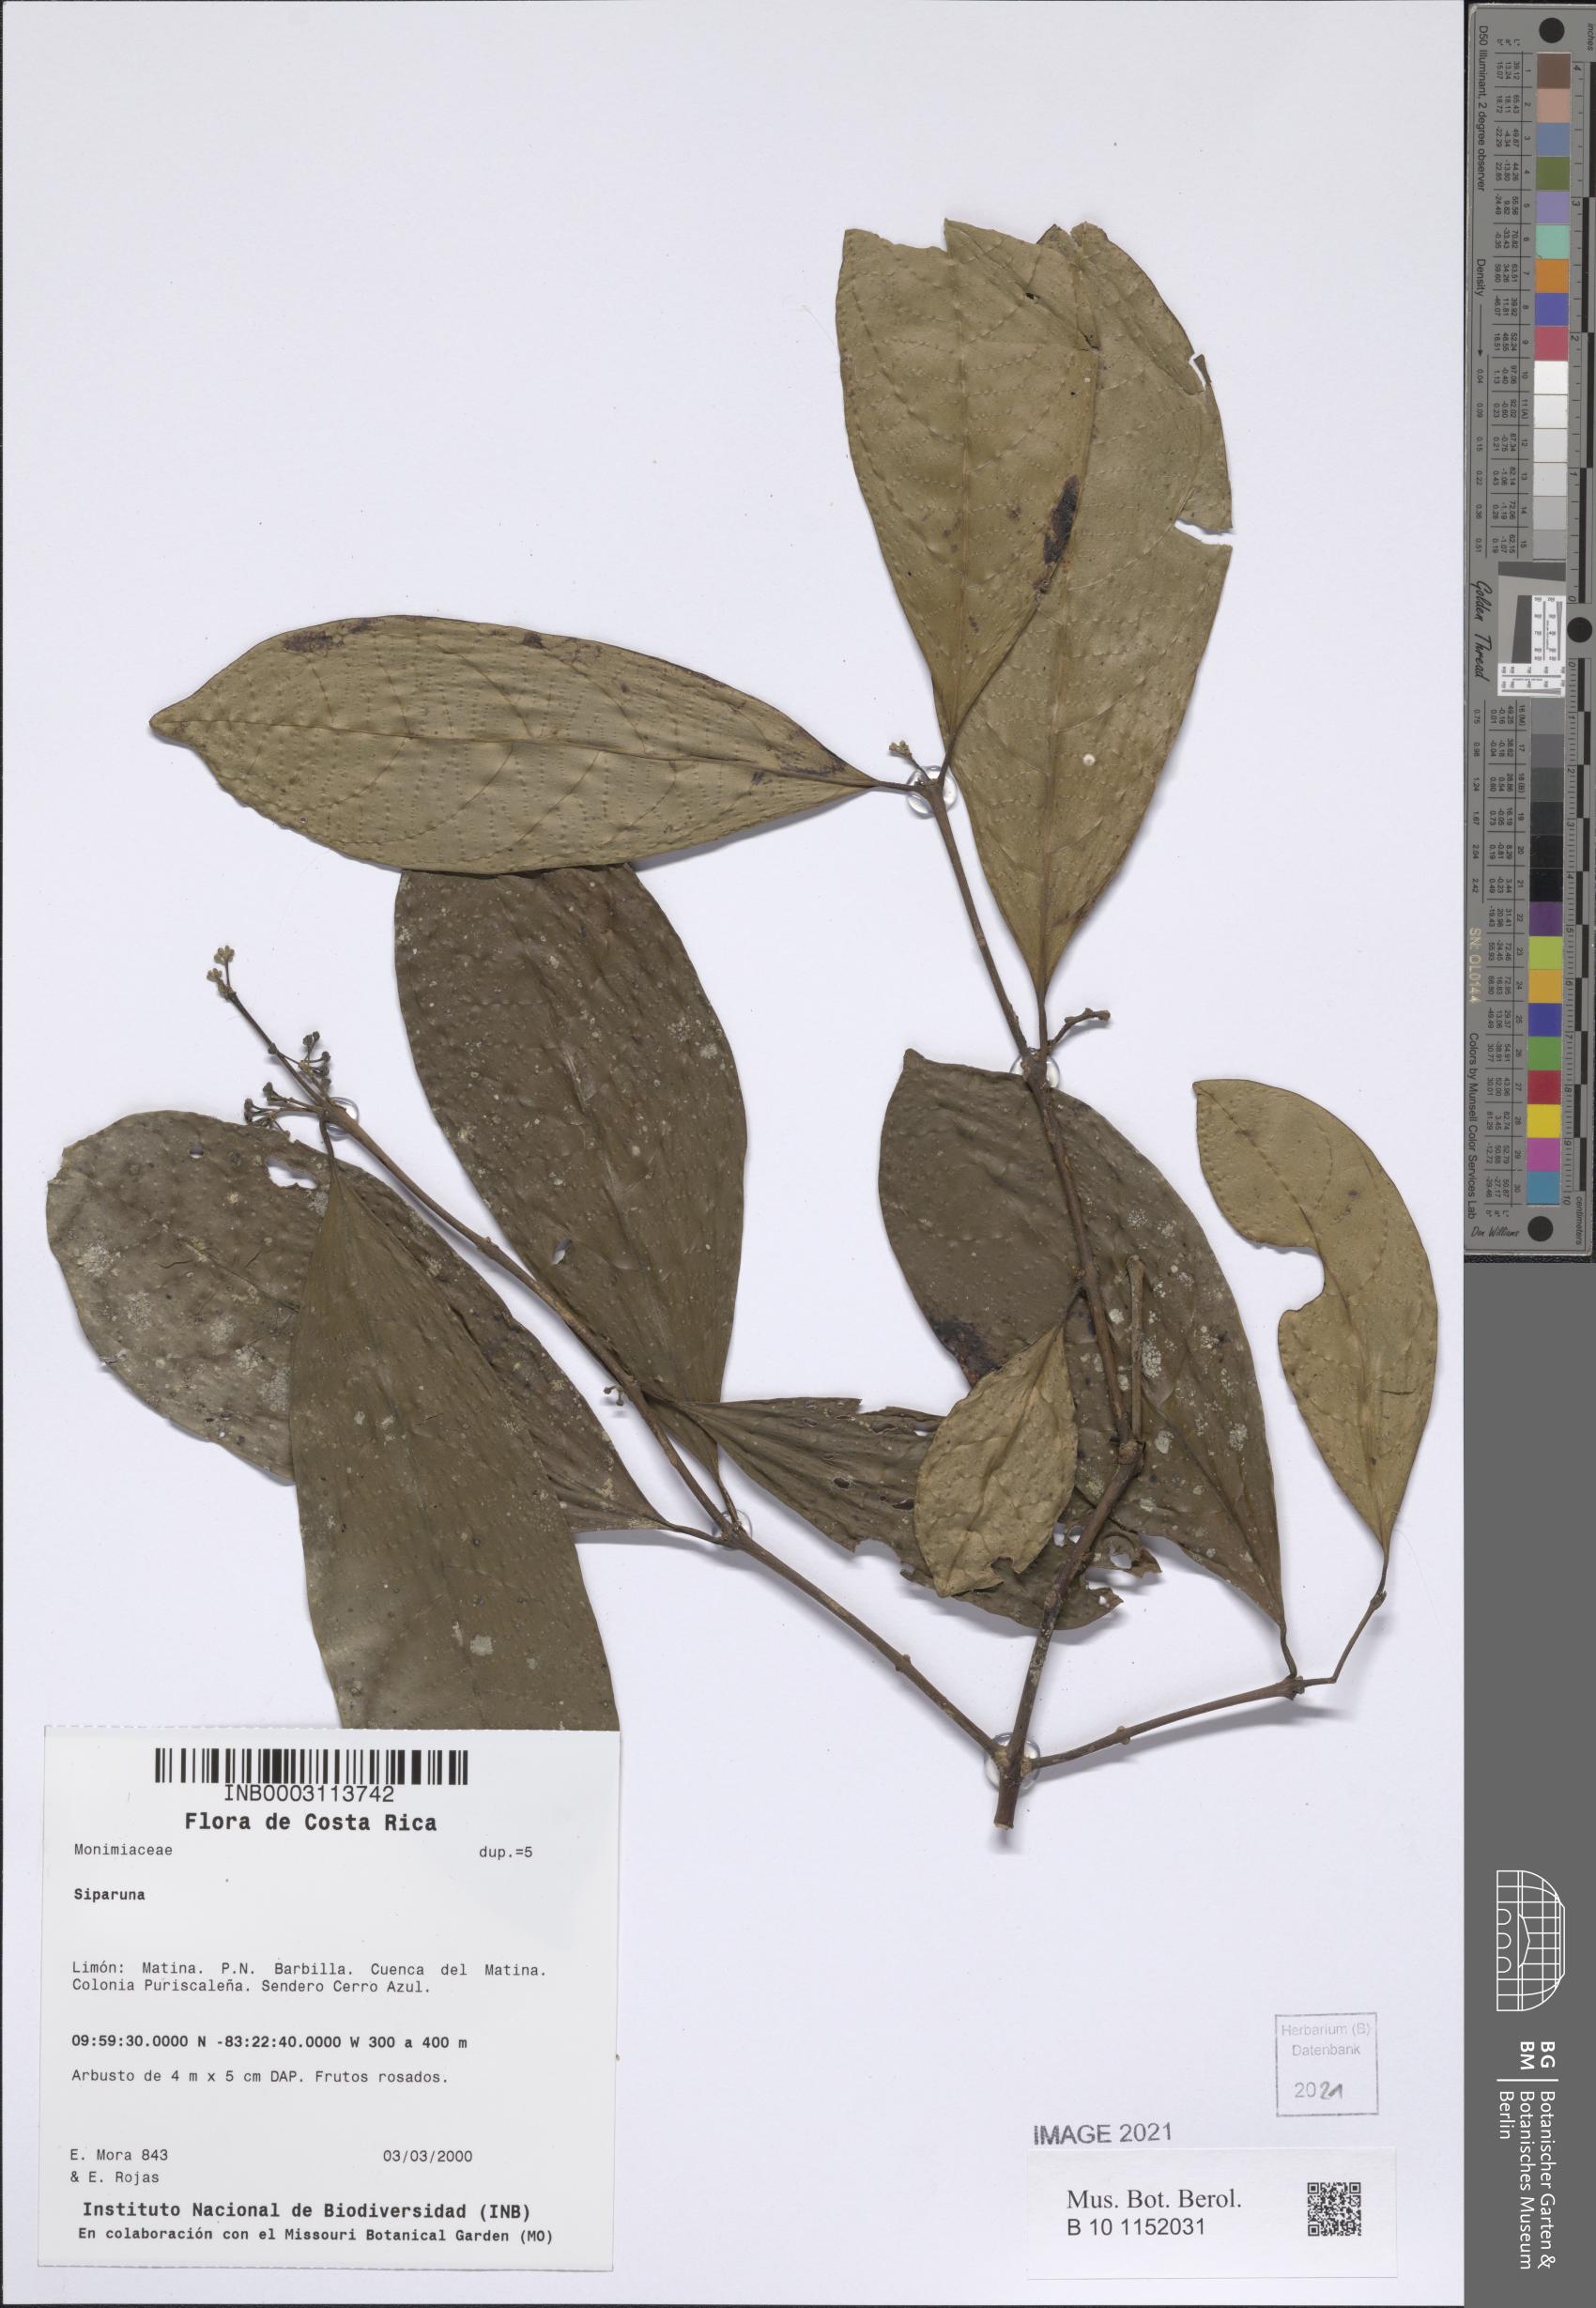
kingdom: Plantae
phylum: Tracheophyta
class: Magnoliopsida
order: Laurales
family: Siparunaceae
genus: Siparuna
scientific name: Siparuna cristata
